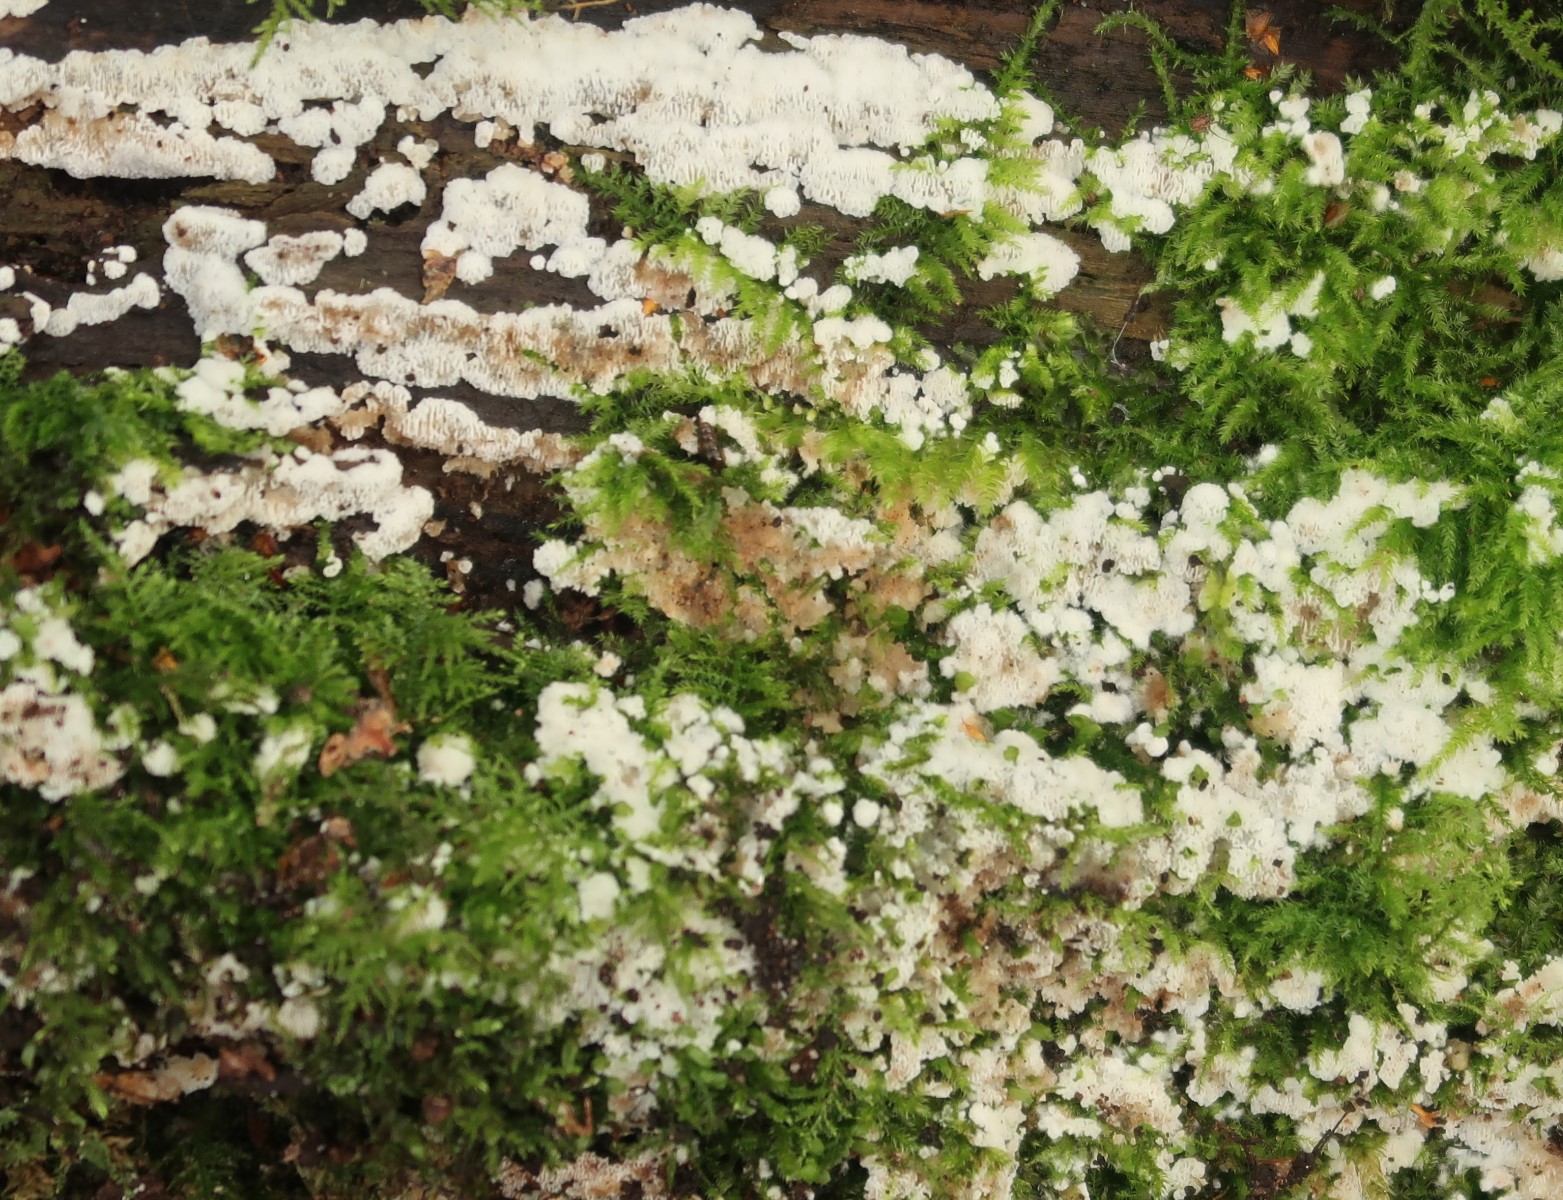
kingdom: Fungi
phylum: Basidiomycota
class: Agaricomycetes
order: Polyporales
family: Meripilaceae
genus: Rigidoporus
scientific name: Rigidoporus sanguinolentus
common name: blod-skorpeporesvamp
